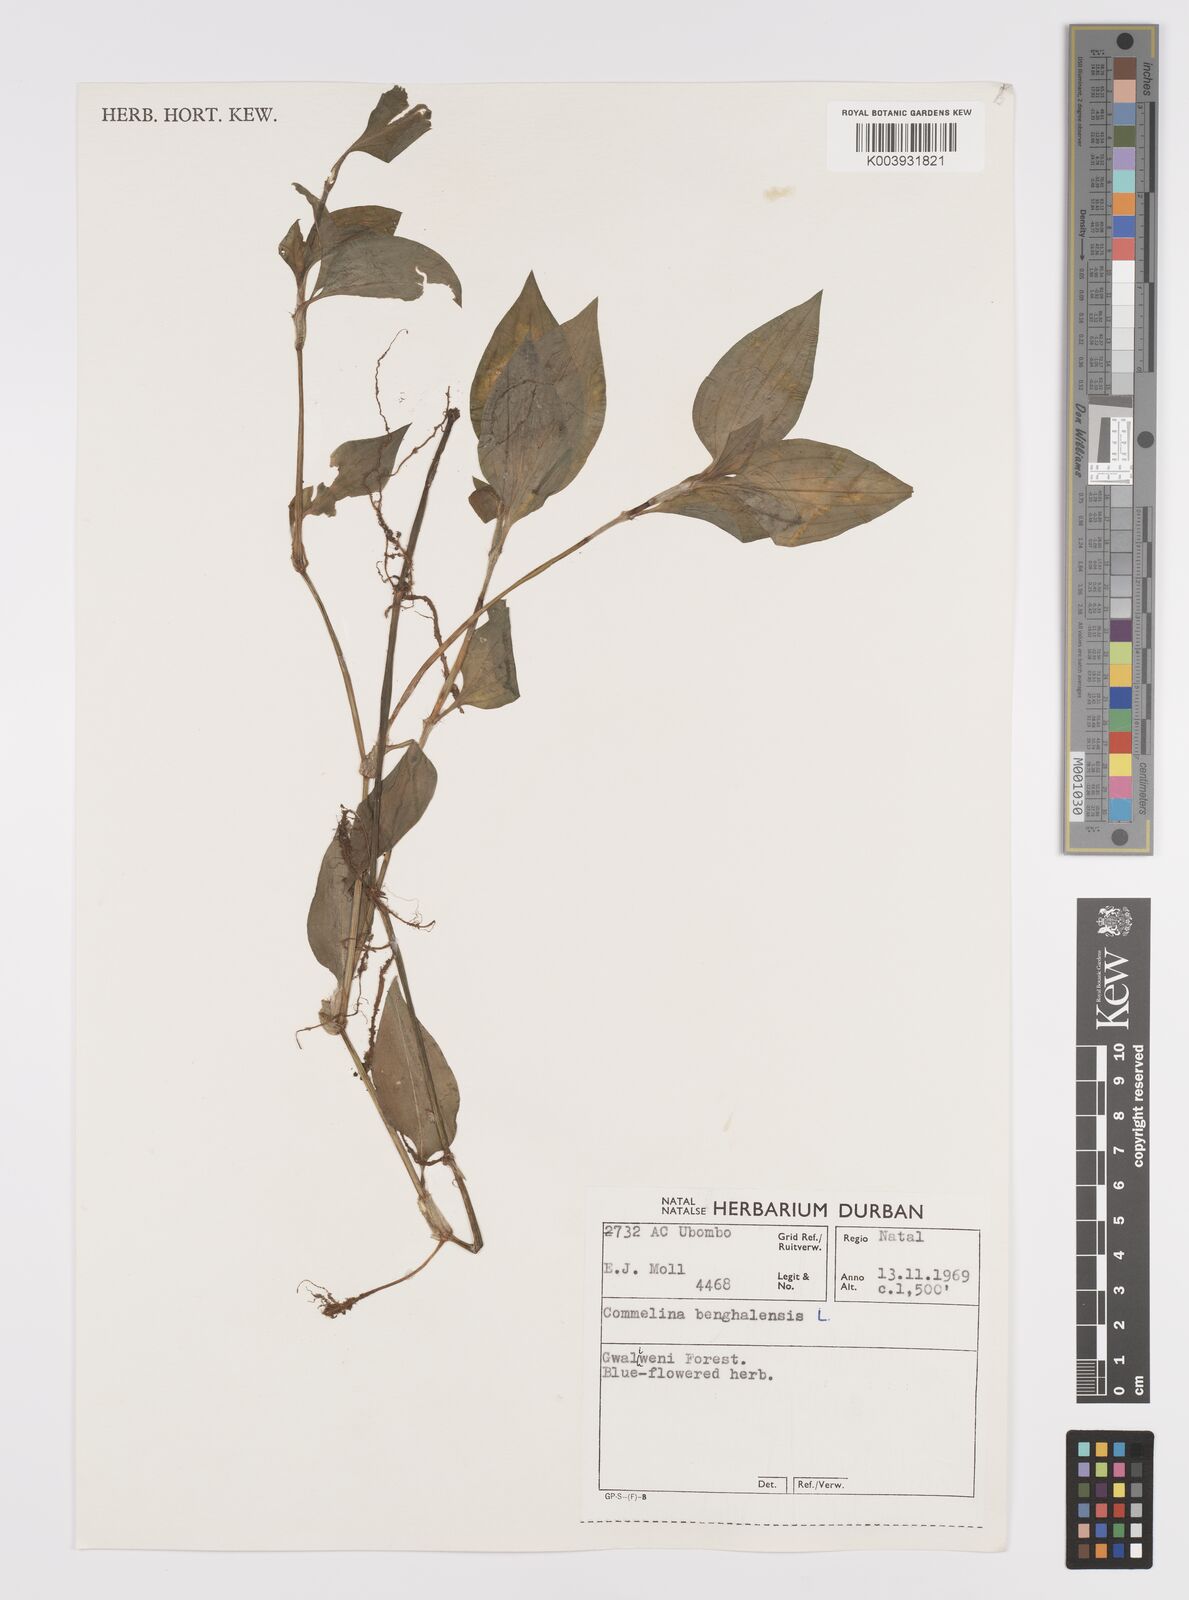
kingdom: Plantae
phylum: Tracheophyta
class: Liliopsida
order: Commelinales
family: Commelinaceae
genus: Commelina
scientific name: Commelina benghalensis
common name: Jio
